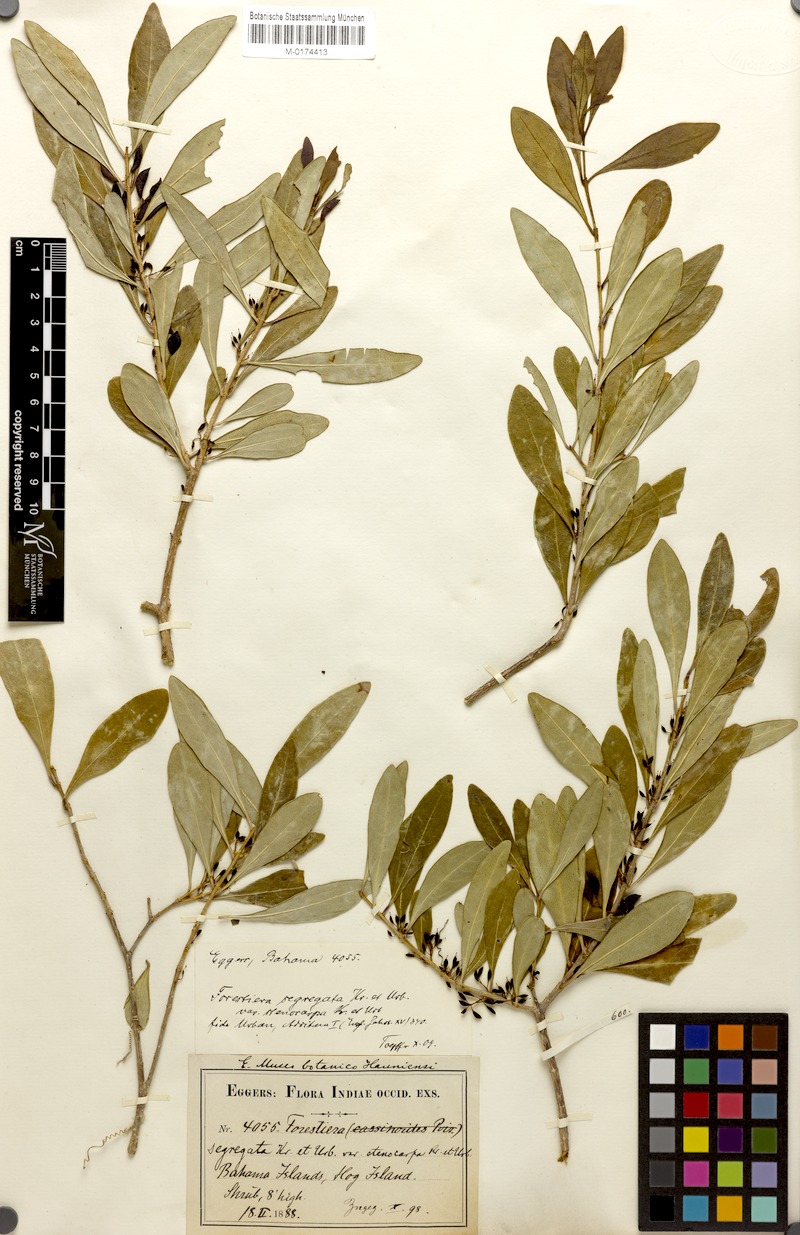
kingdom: Plantae
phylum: Tracheophyta
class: Magnoliopsida
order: Lamiales
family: Oleaceae
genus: Forestiera
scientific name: Forestiera segregata
